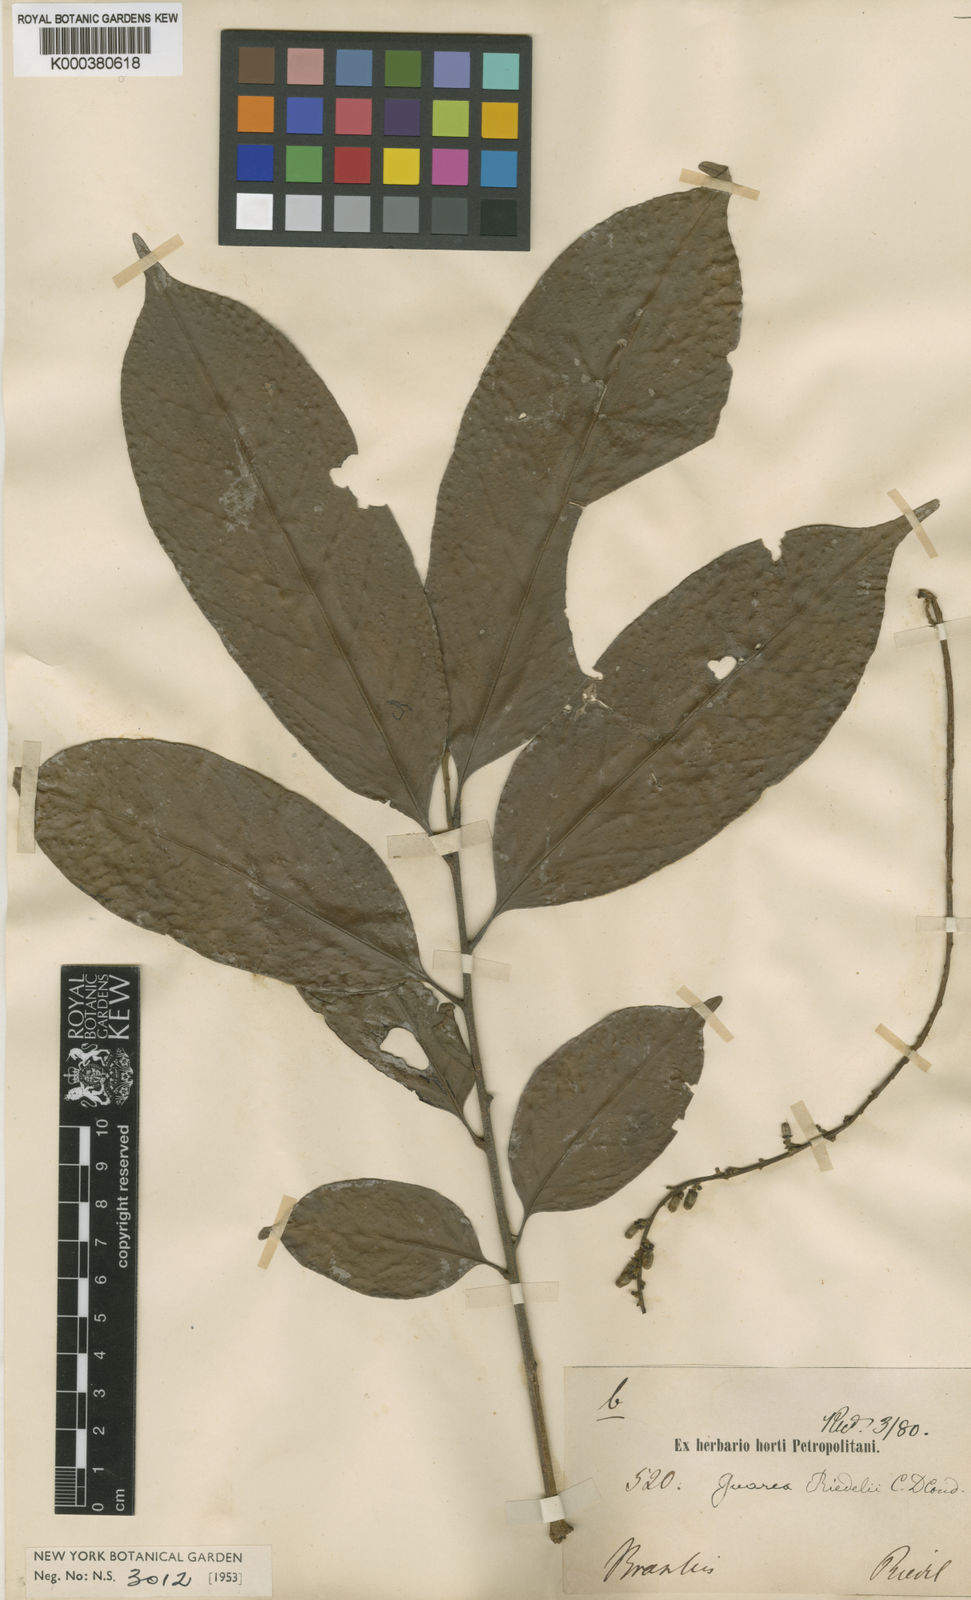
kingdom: Plantae
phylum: Tracheophyta
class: Magnoliopsida
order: Sapindales
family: Meliaceae
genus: Guarea
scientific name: Guarea macrophylla
